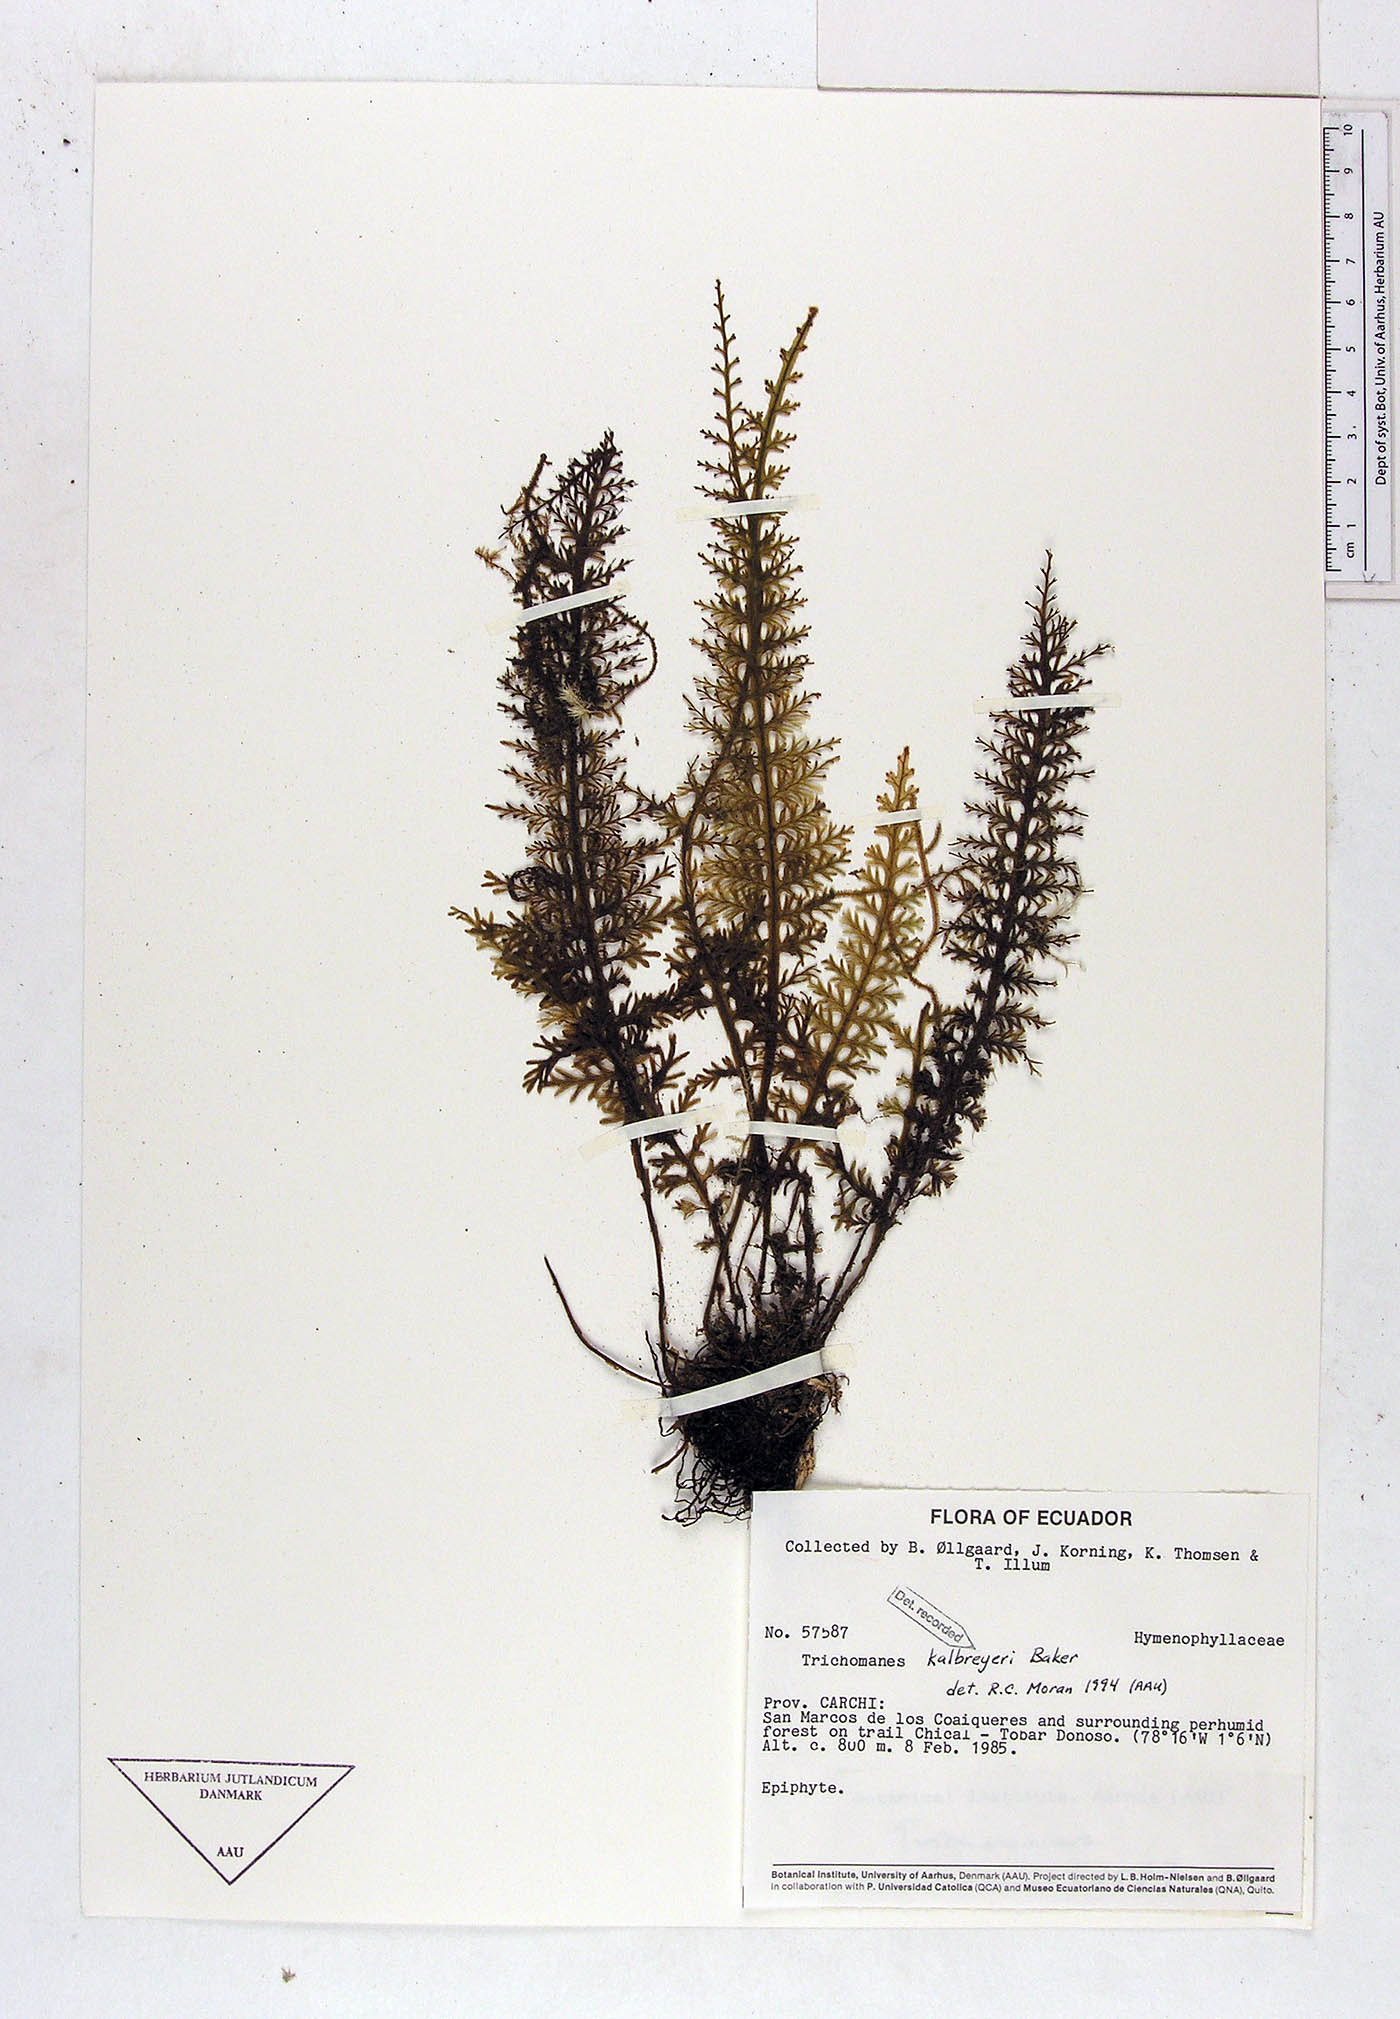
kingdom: Plantae
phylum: Tracheophyta
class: Polypodiopsida
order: Hymenophyllales
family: Hymenophyllaceae
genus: Trichomanes
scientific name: Trichomanes kalbreyeri
